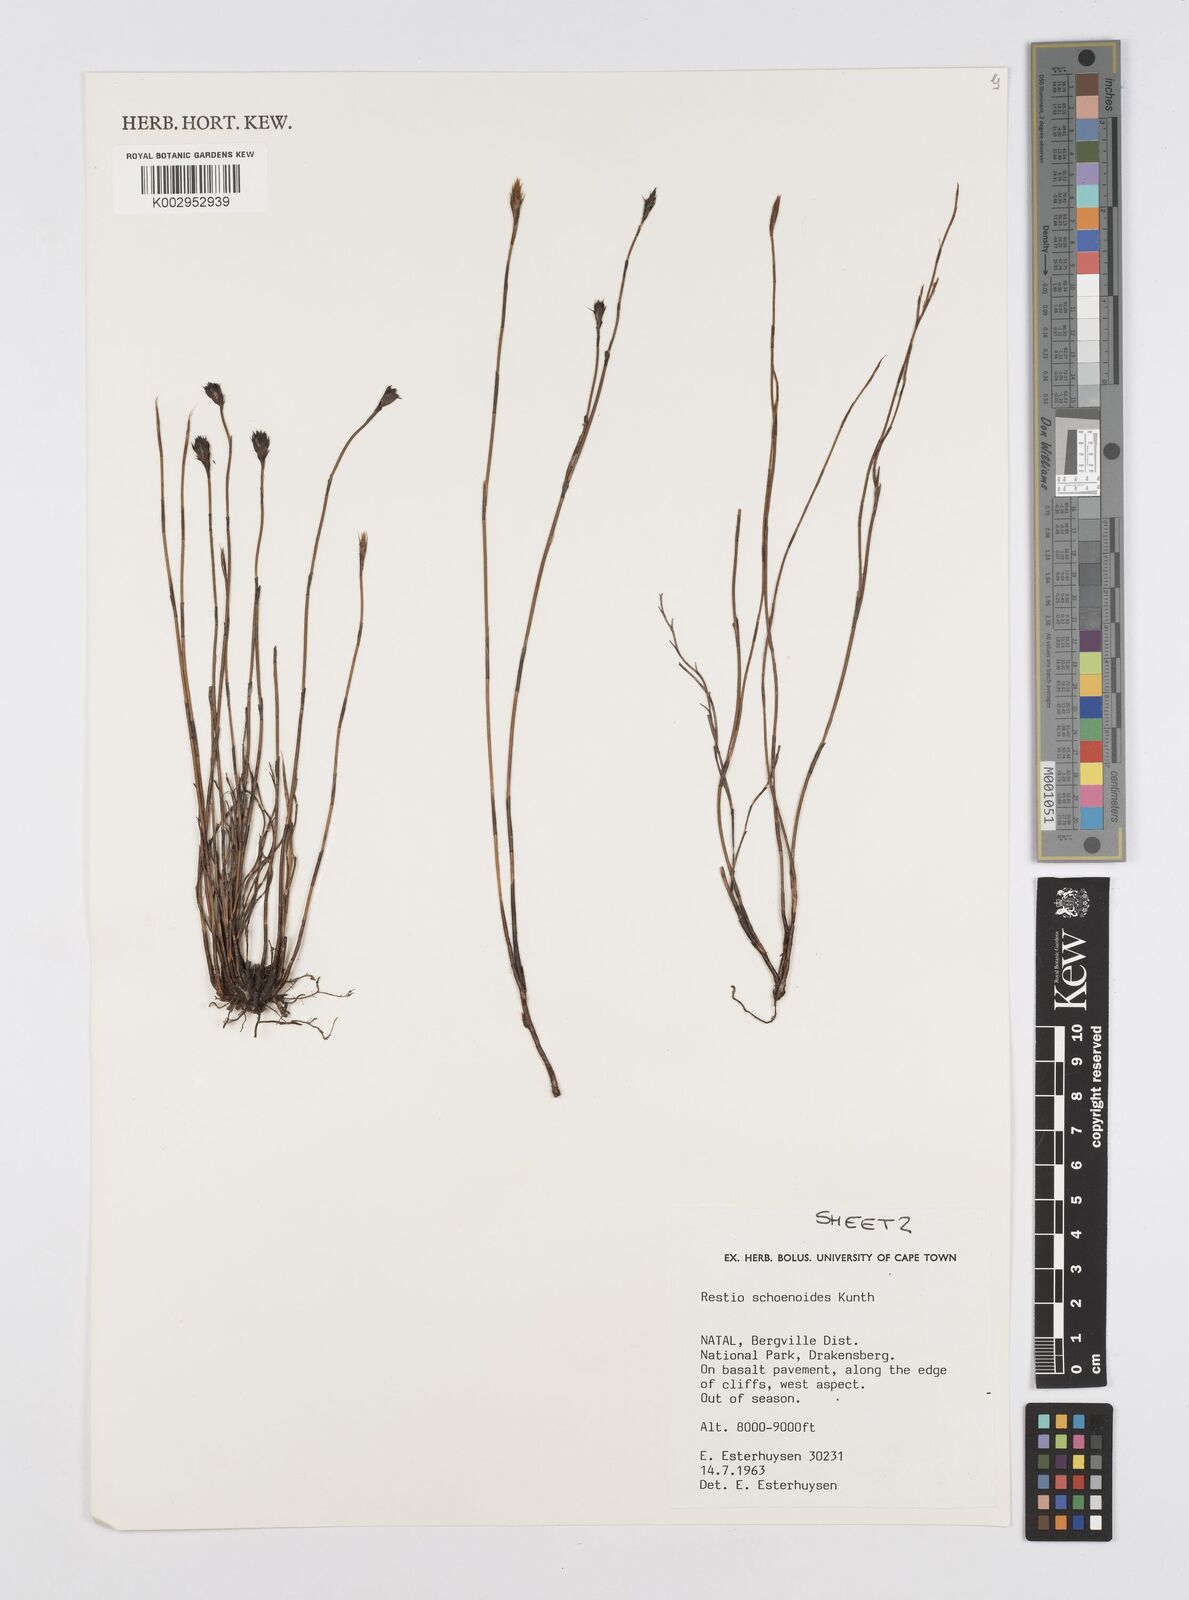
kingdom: Plantae
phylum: Tracheophyta
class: Liliopsida
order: Poales
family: Restionaceae
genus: Restio
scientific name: Restio schoenoides
